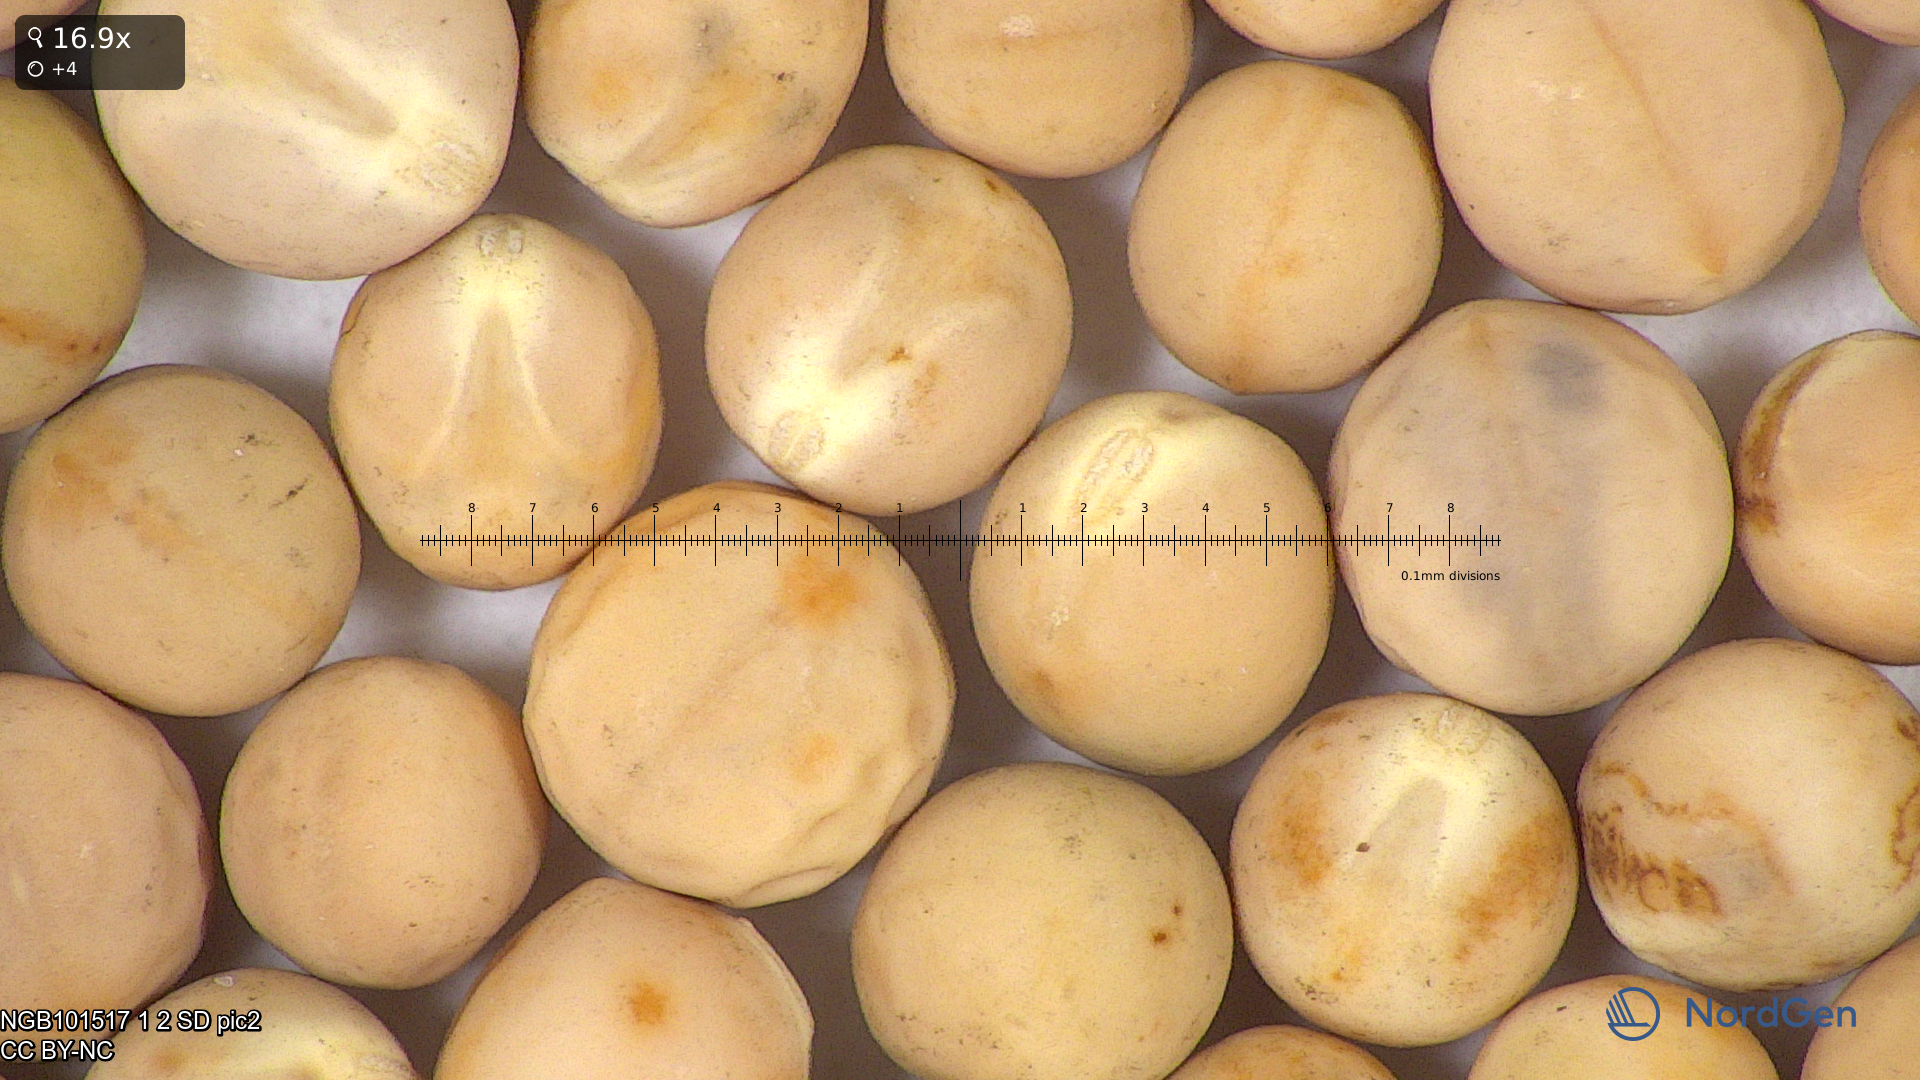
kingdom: Plantae
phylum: Tracheophyta
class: Magnoliopsida
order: Fabales
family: Fabaceae
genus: Lathyrus
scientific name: Lathyrus oleraceus
